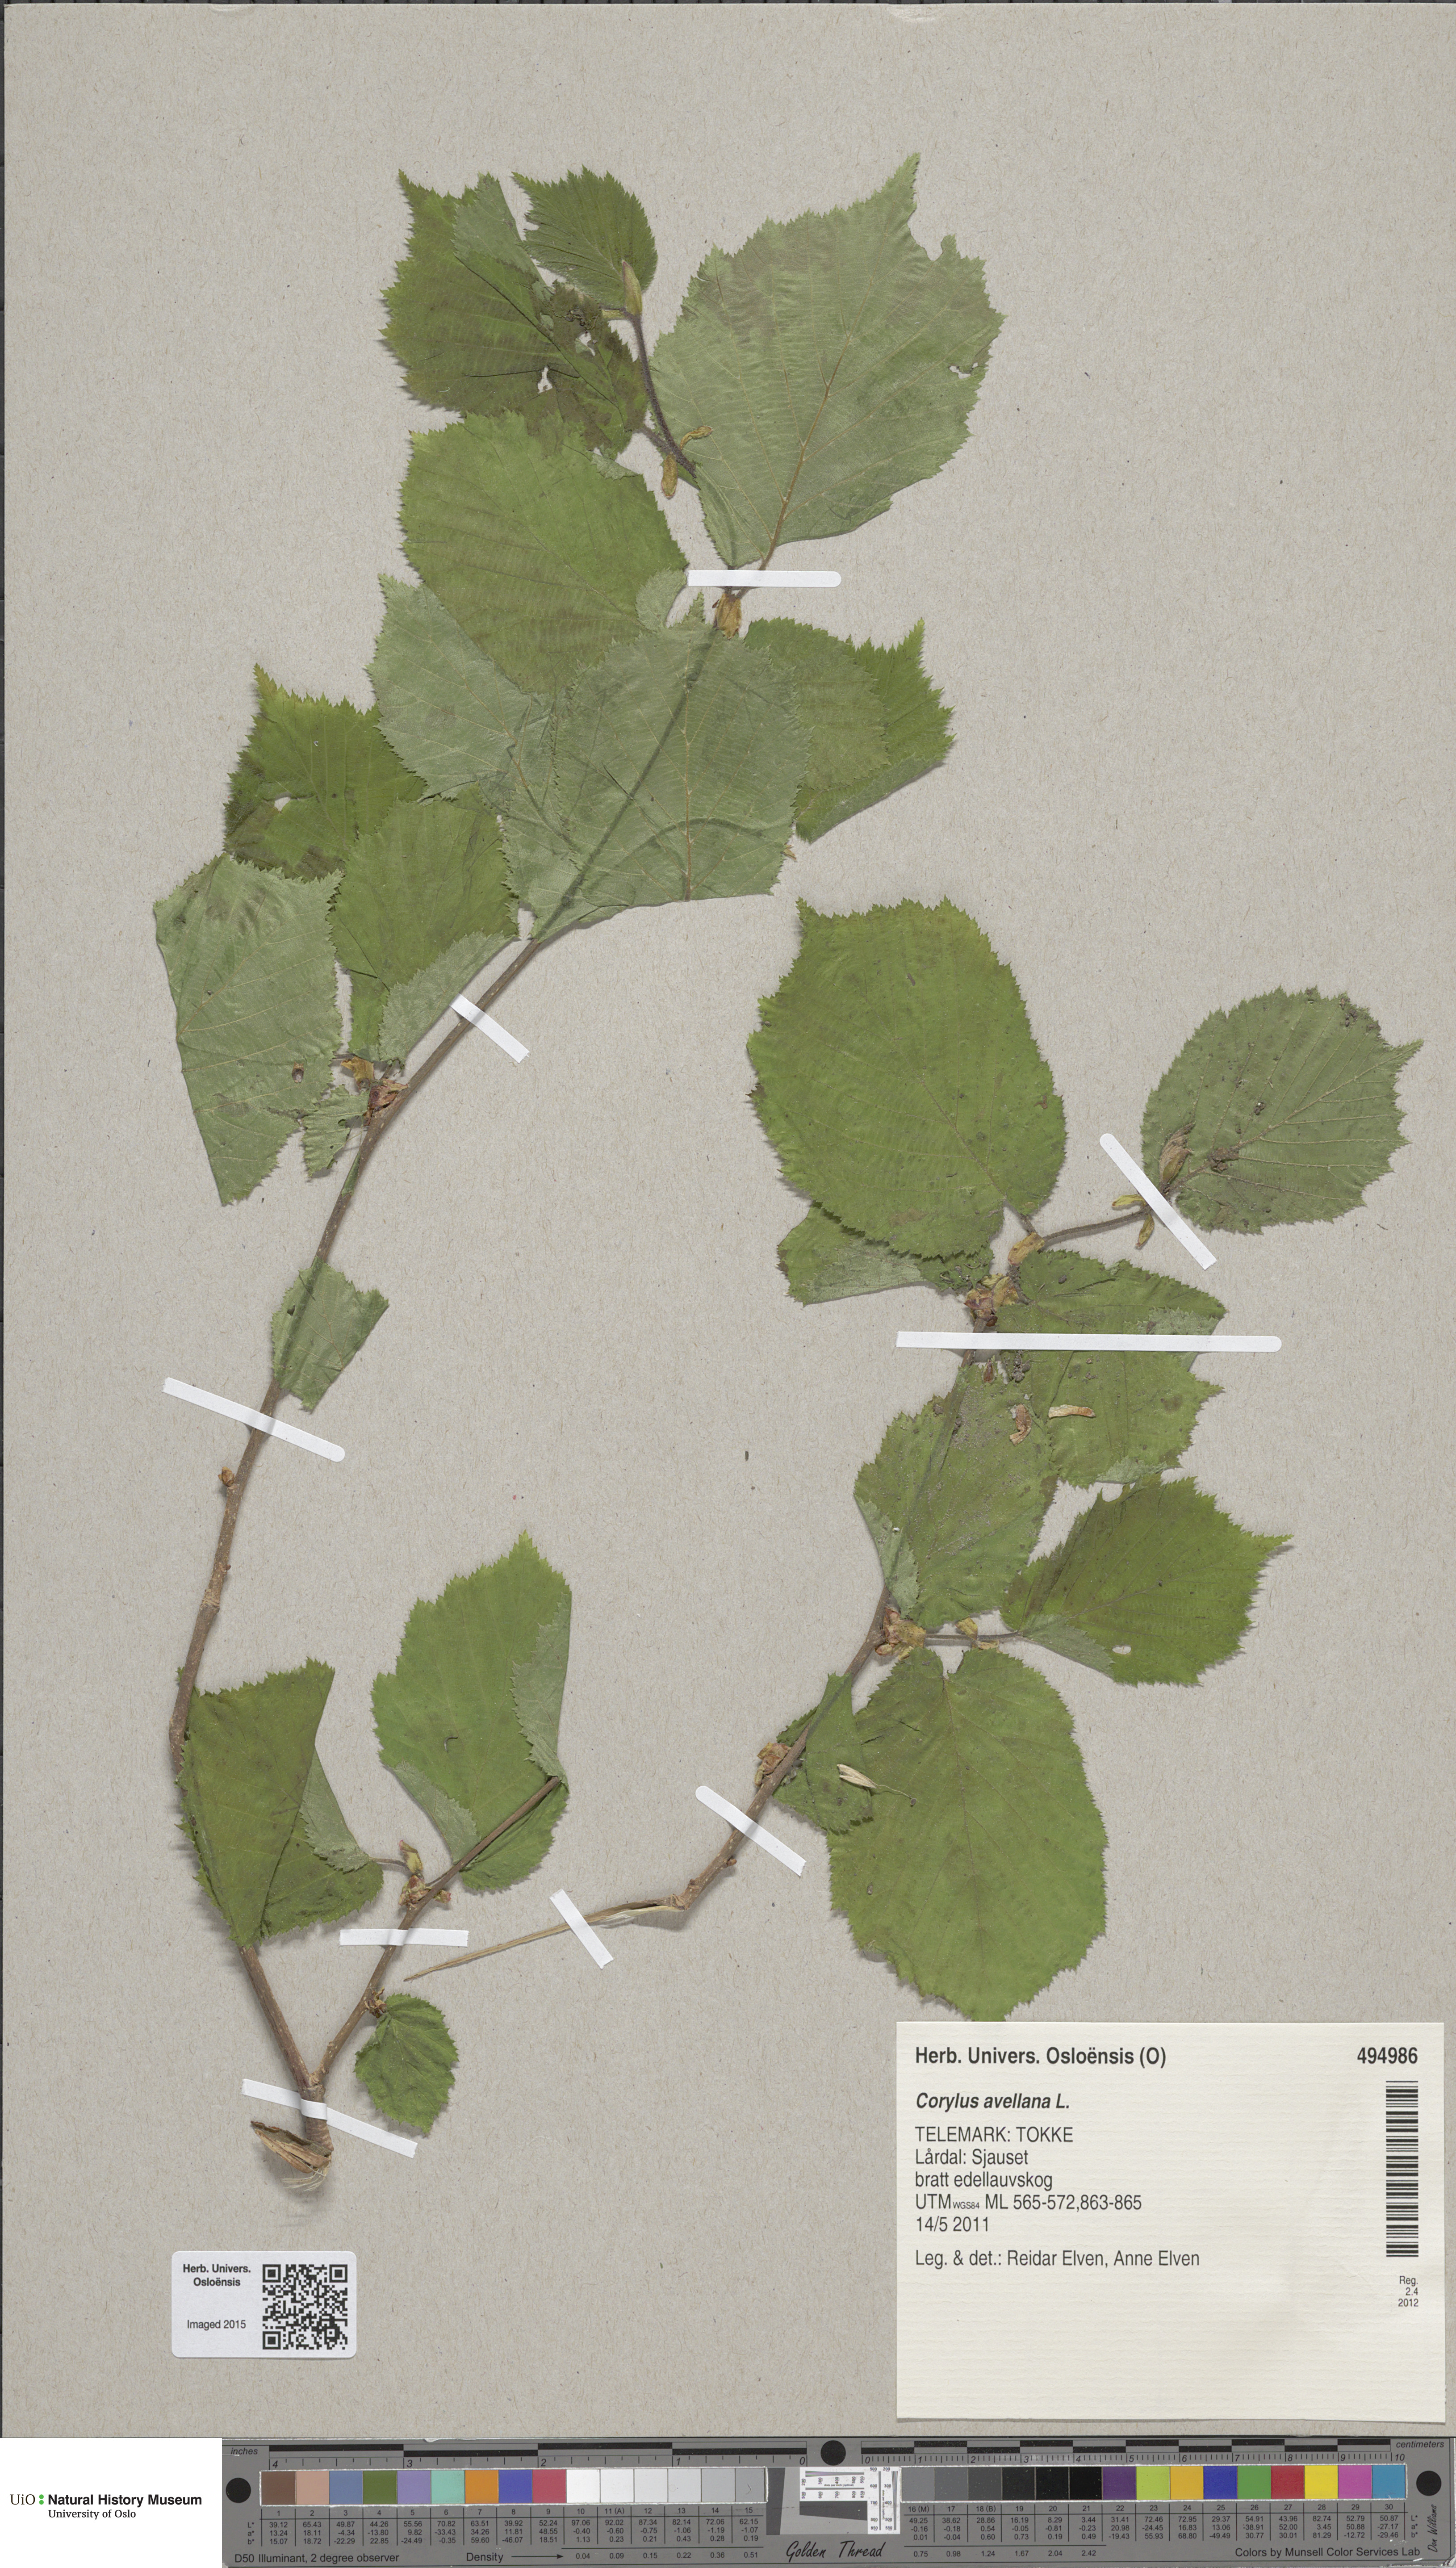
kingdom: Plantae
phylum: Tracheophyta
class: Magnoliopsida
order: Fagales
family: Betulaceae
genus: Corylus
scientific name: Corylus avellana
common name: European hazel
